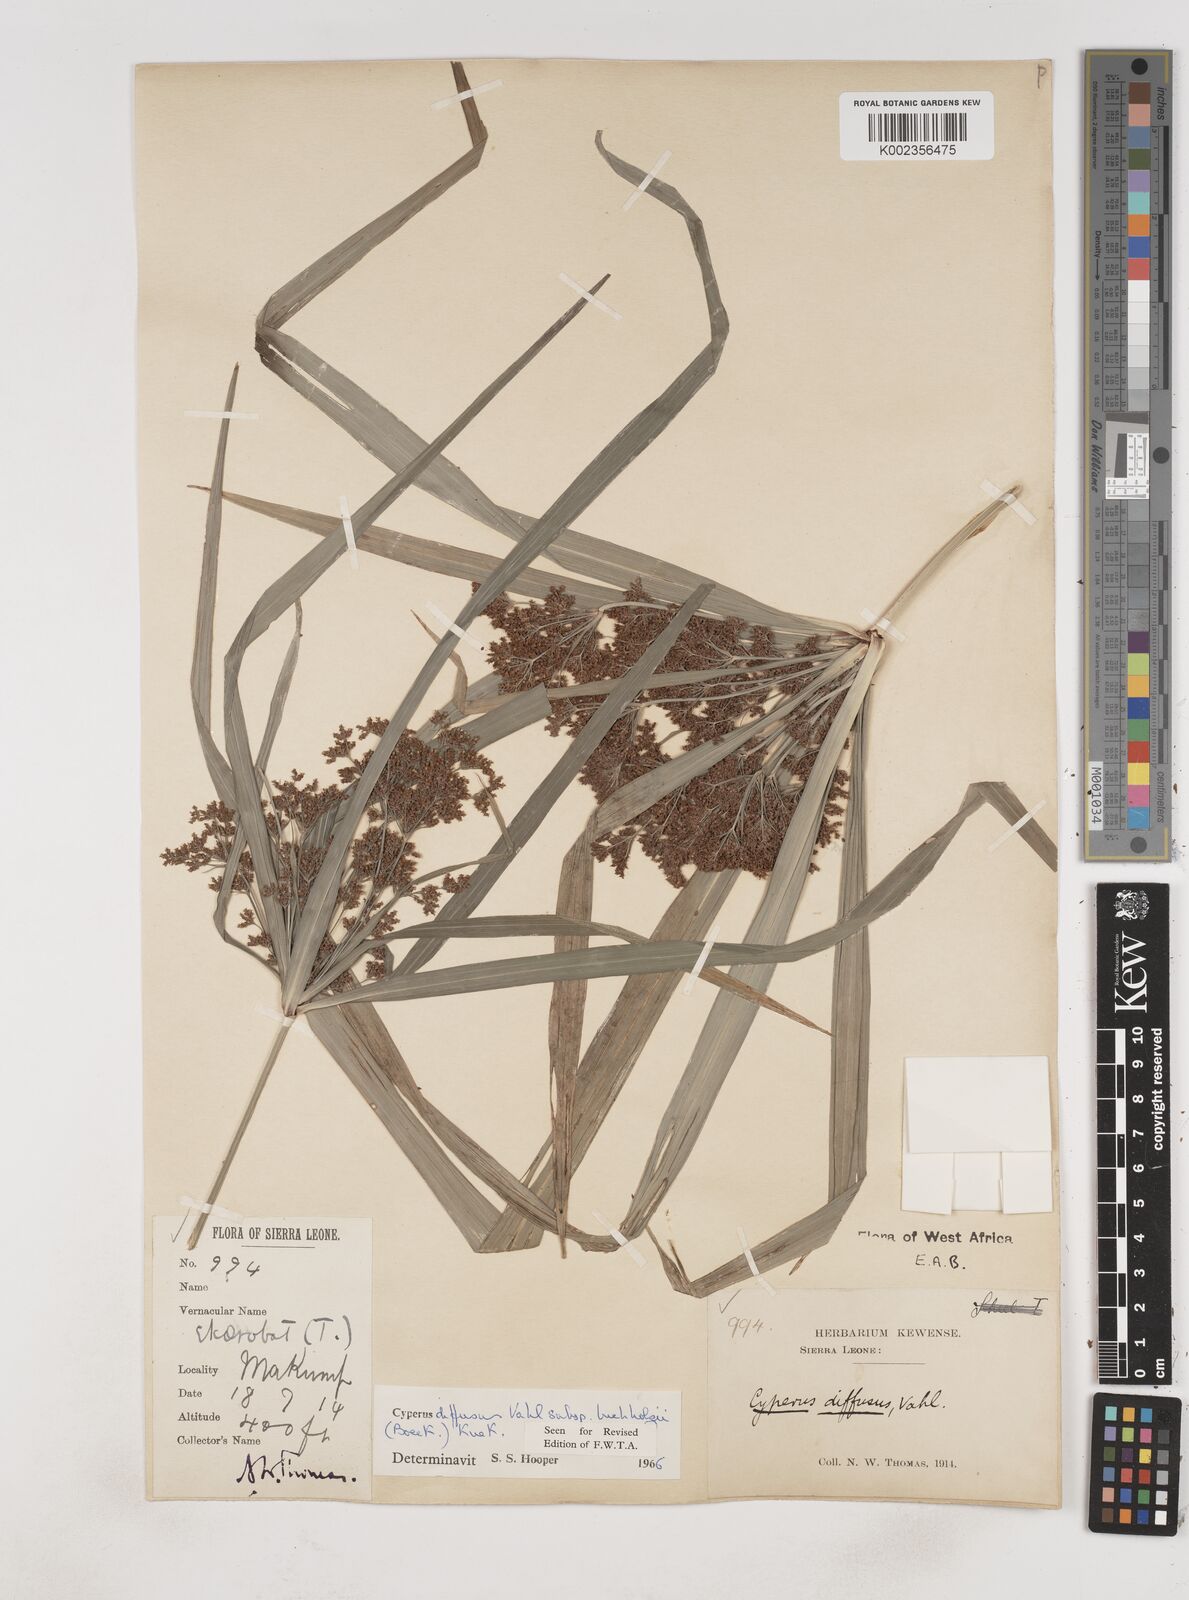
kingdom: Plantae
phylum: Tracheophyta
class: Liliopsida
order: Poales
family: Cyperaceae
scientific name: Cyperaceae
